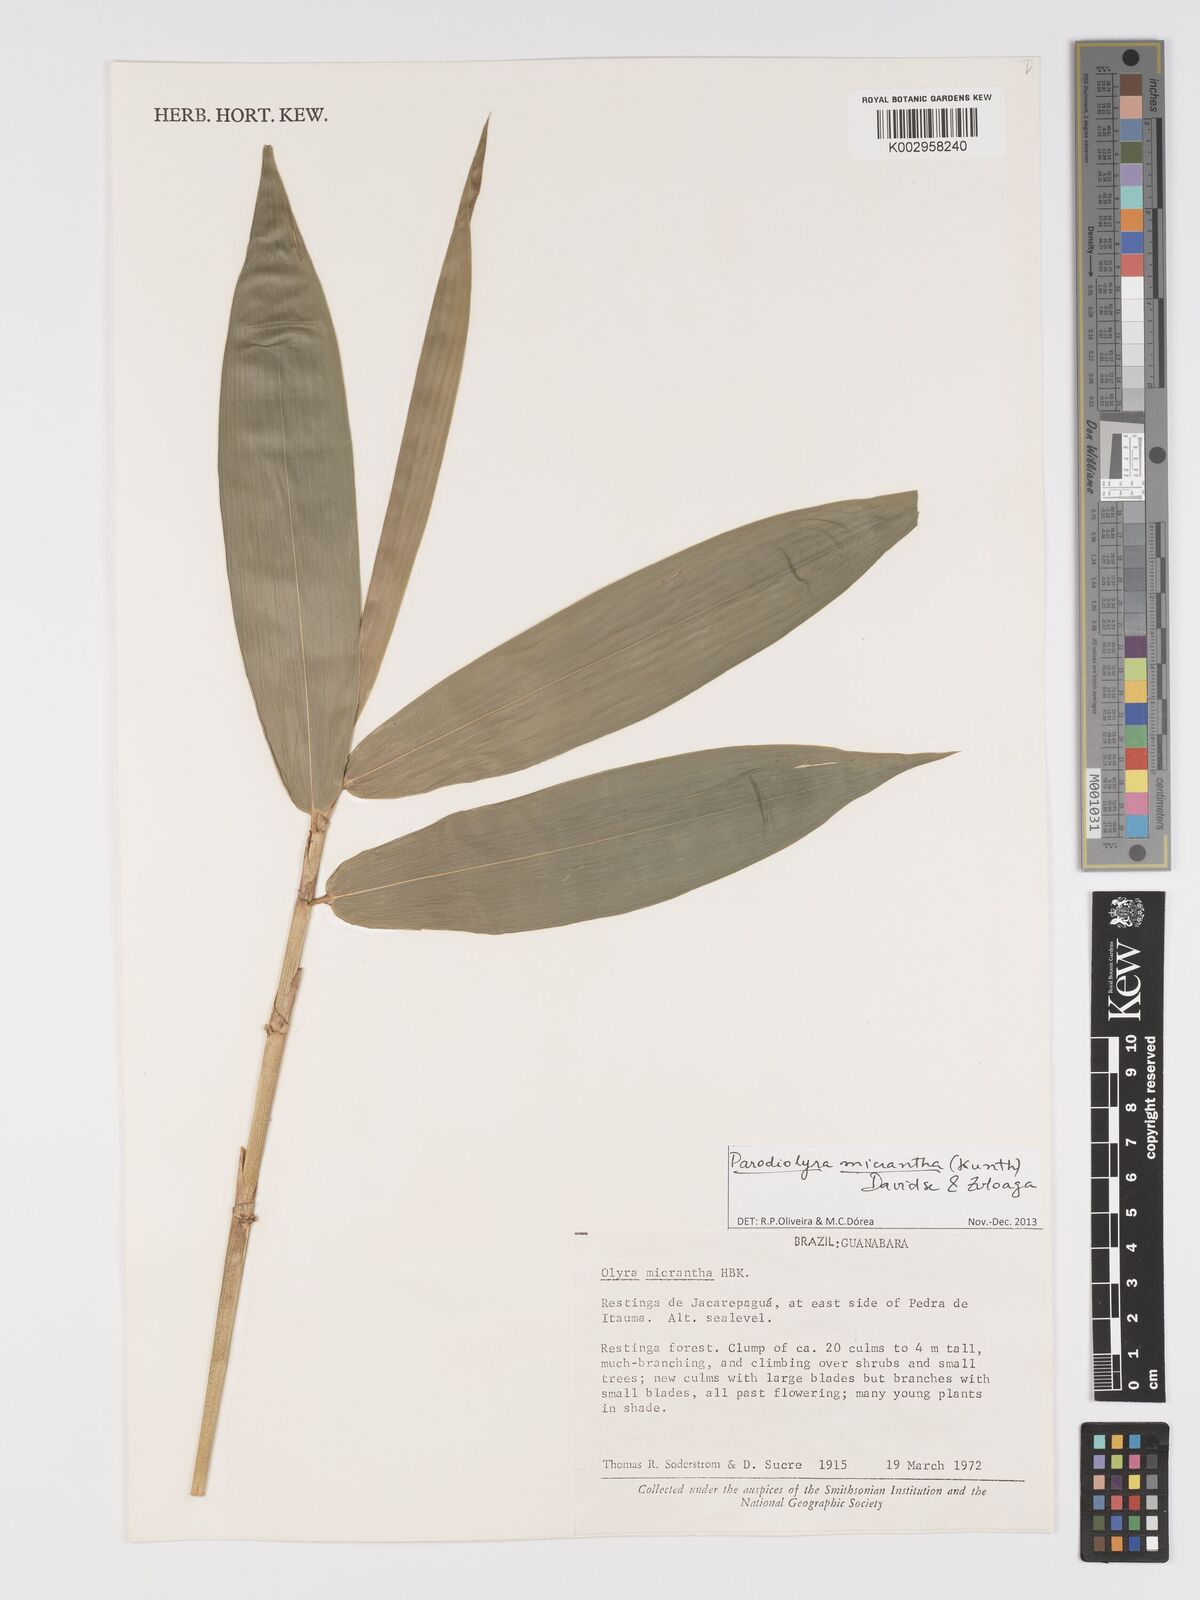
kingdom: Plantae
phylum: Tracheophyta
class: Liliopsida
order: Poales
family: Poaceae
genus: Taquara
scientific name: Taquara micrantha
